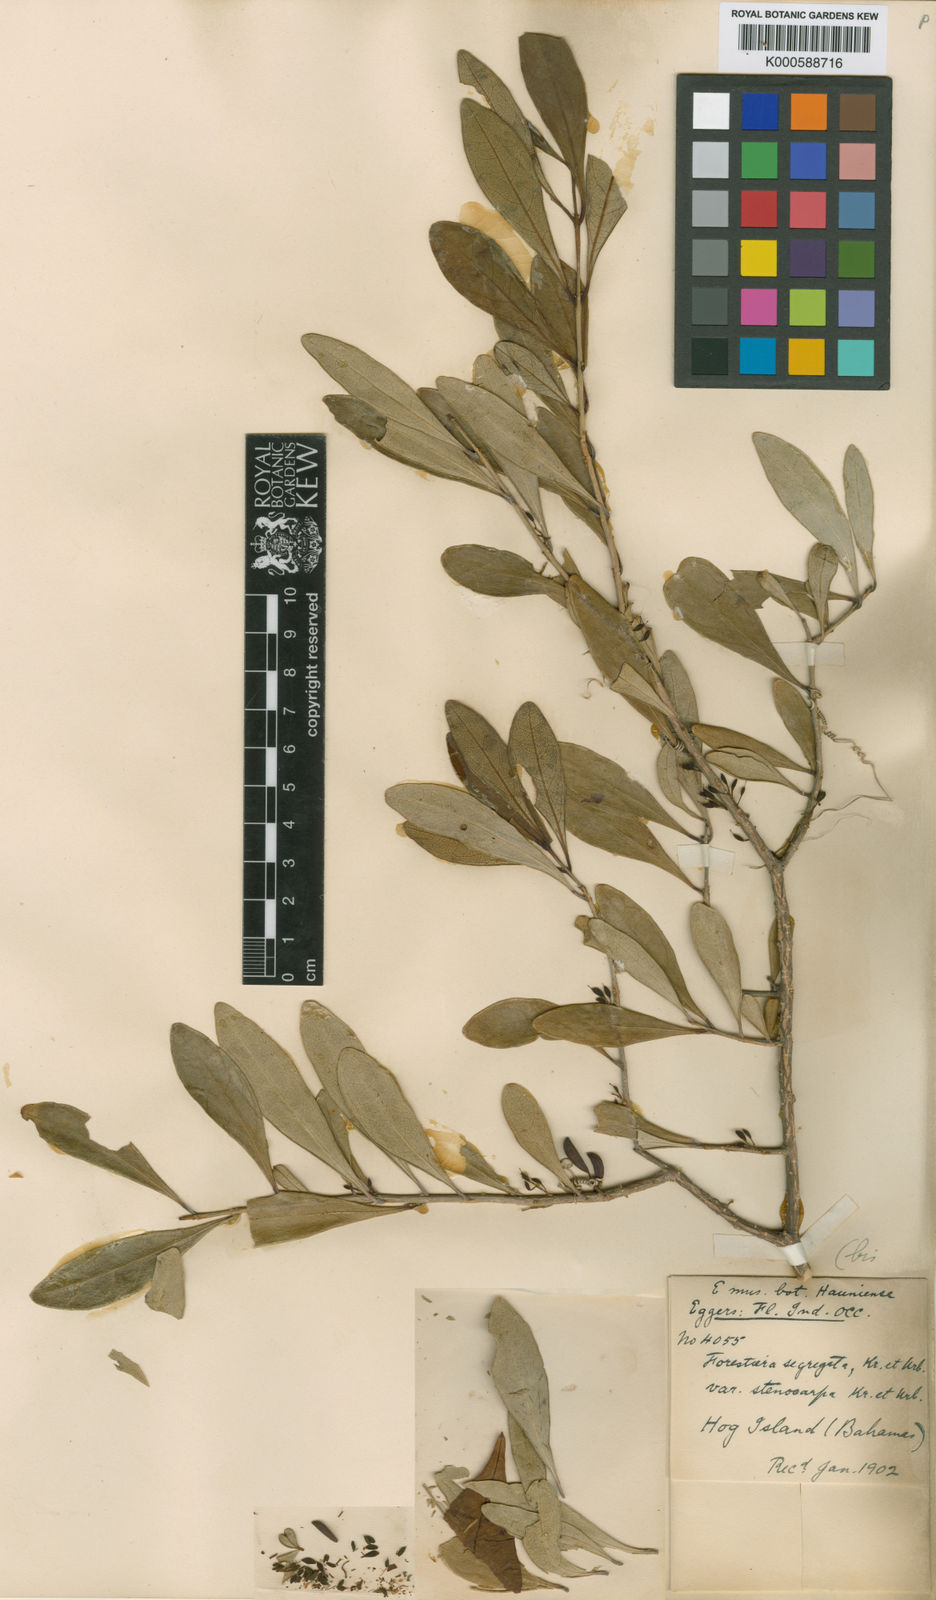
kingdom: Plantae
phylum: Tracheophyta
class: Magnoliopsida
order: Lamiales
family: Oleaceae
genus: Forestiera
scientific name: Forestiera segregata
